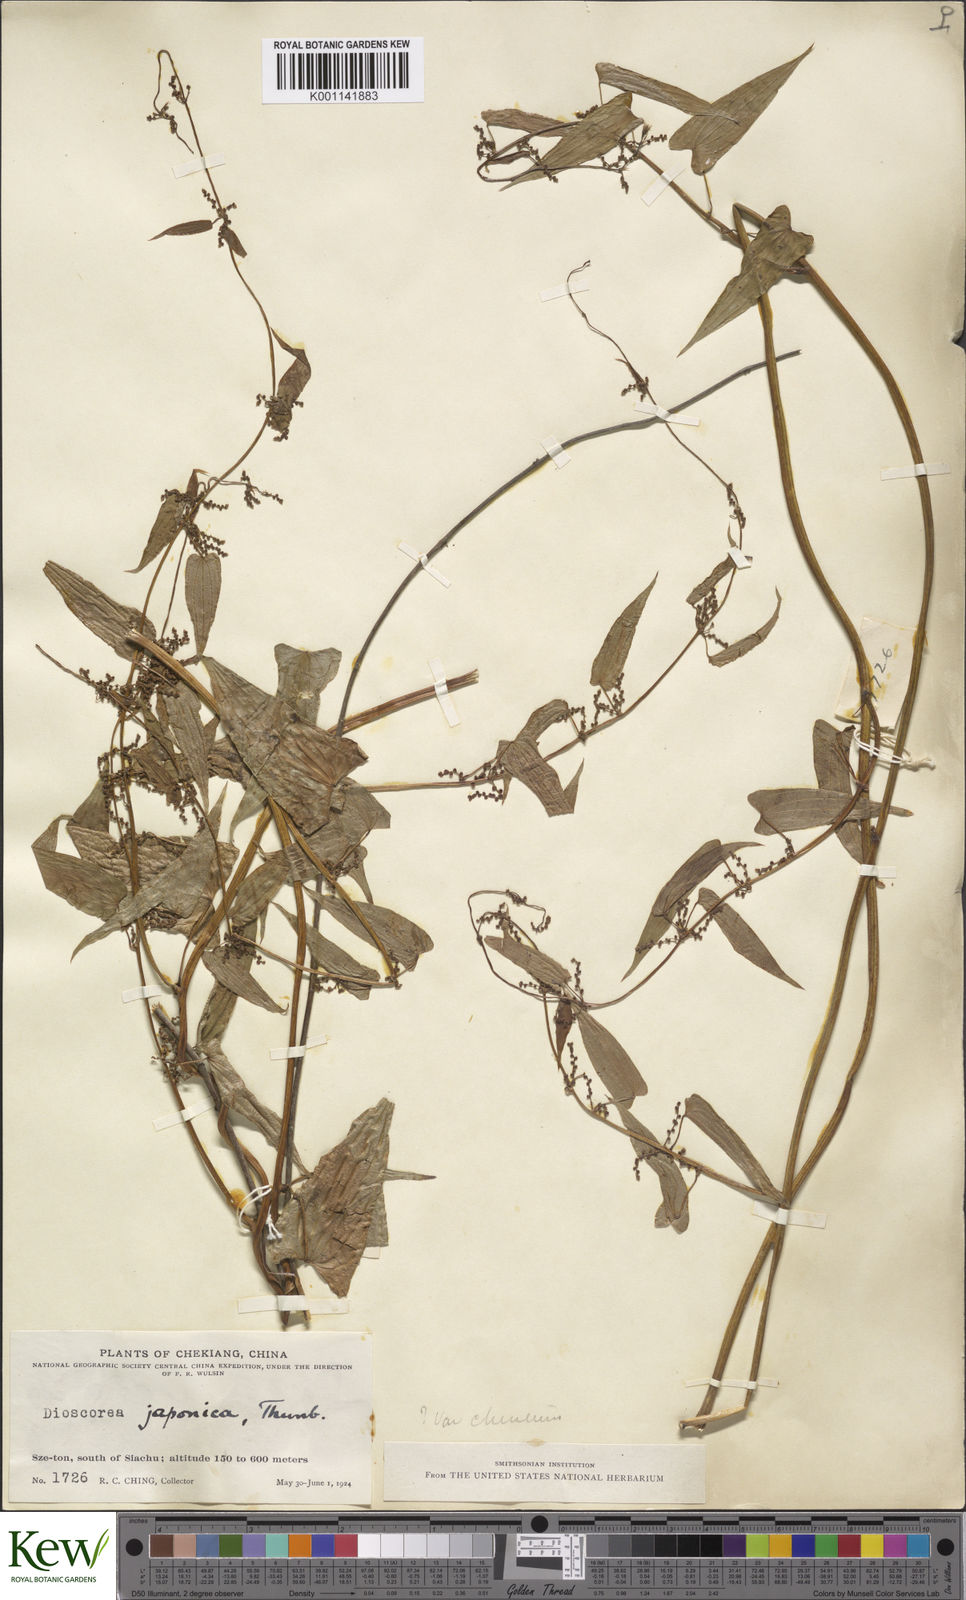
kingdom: Plantae
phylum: Tracheophyta
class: Liliopsida
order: Dioscoreales
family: Dioscoreaceae
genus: Dioscorea
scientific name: Dioscorea japonica
